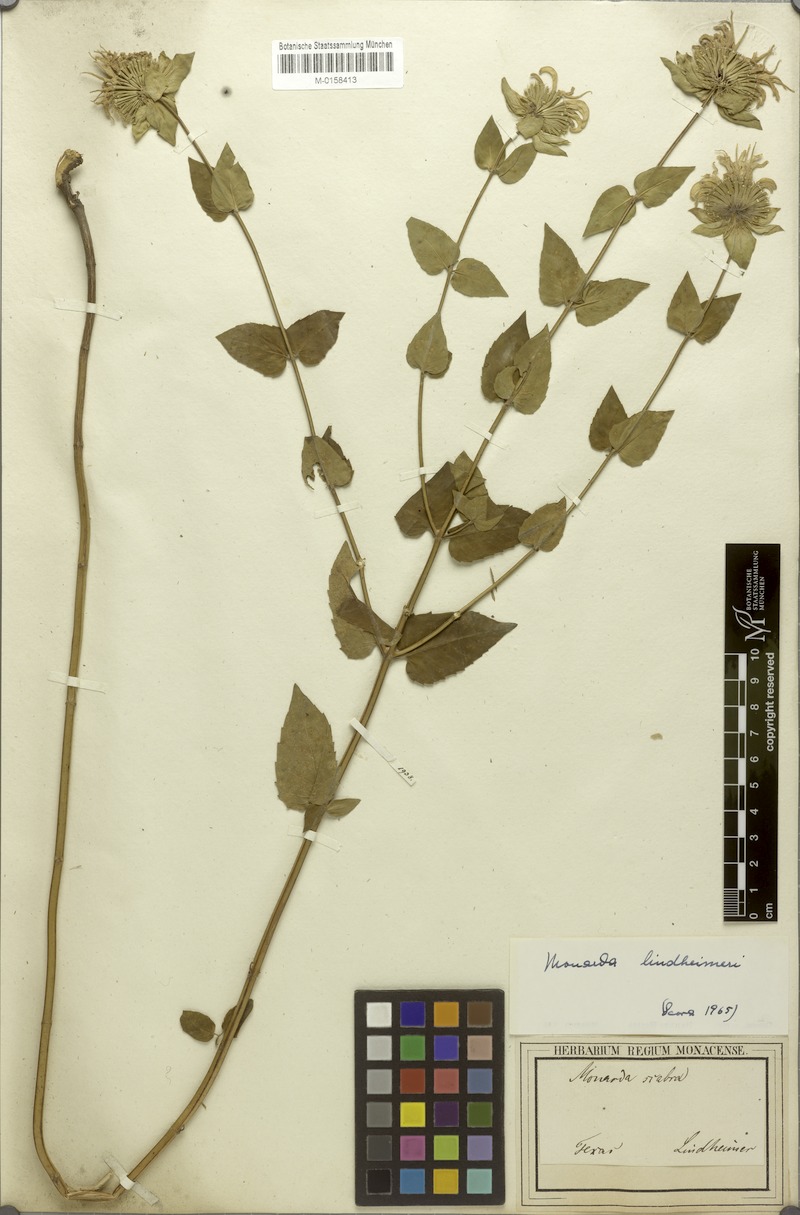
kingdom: Plantae
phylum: Tracheophyta
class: Magnoliopsida
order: Lamiales
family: Lamiaceae
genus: Monarda
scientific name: Monarda lindheimeri
